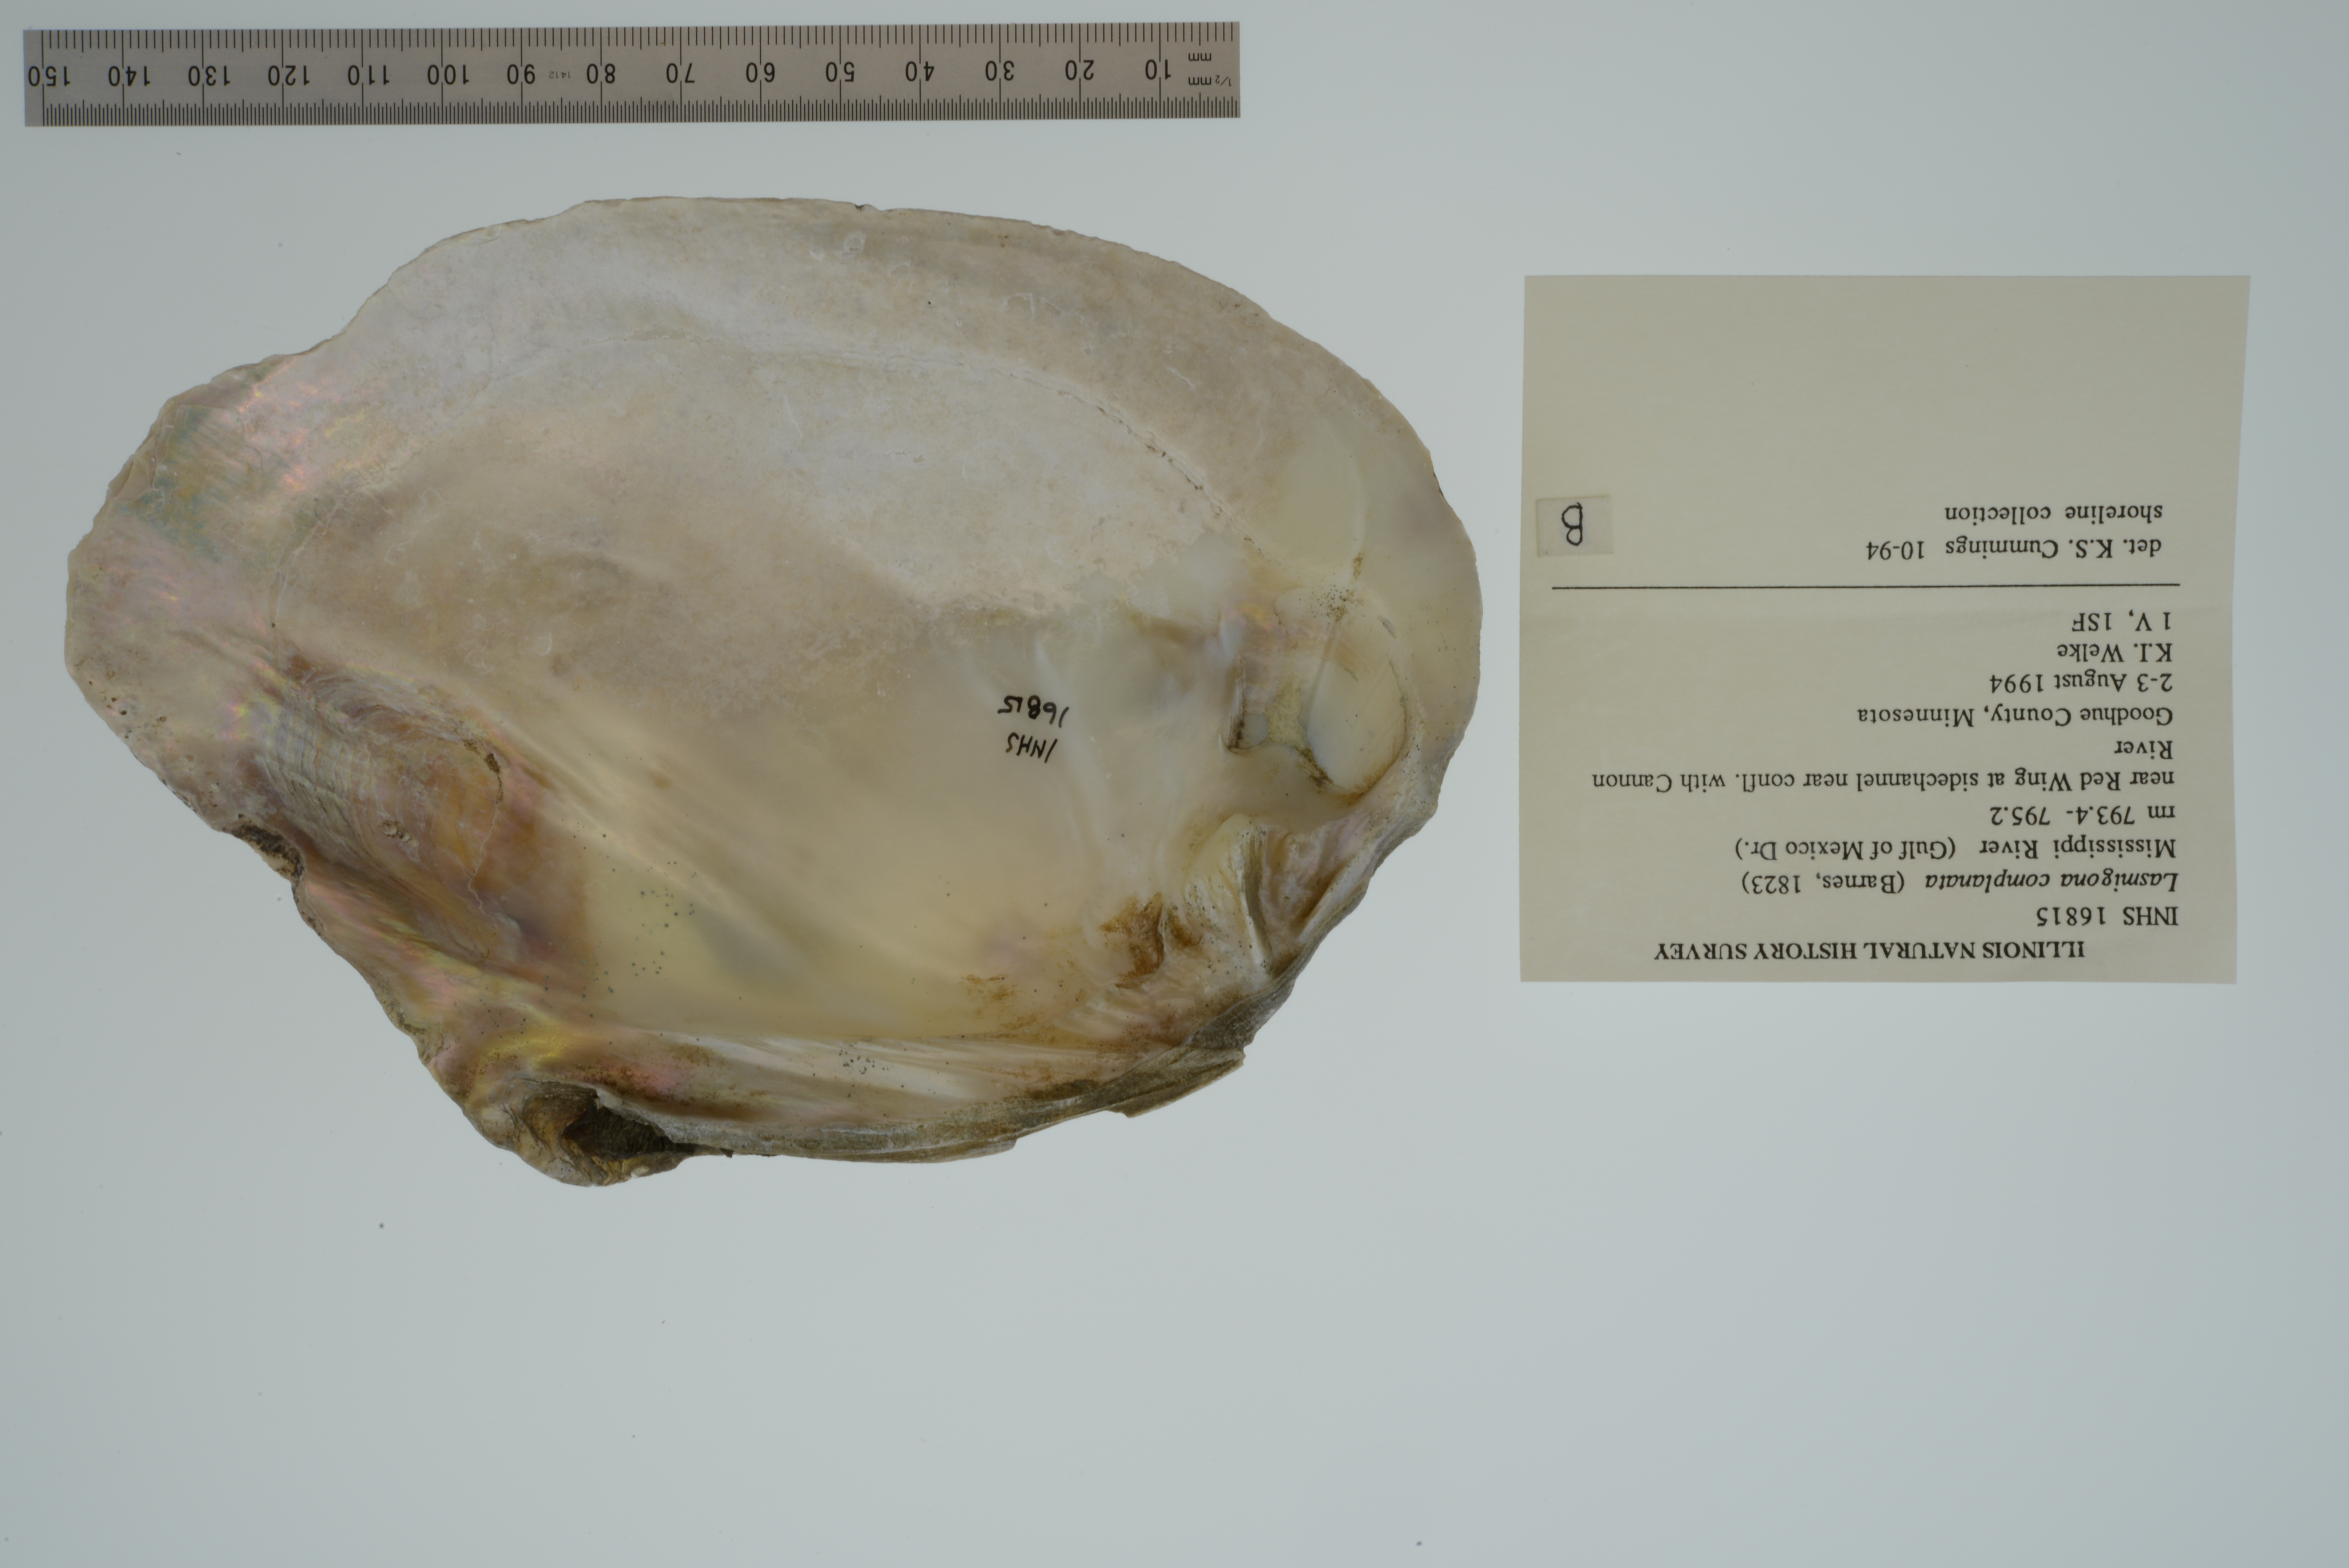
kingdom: Animalia
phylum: Mollusca
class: Bivalvia
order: Unionida
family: Unionidae
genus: Lasmigona
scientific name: Lasmigona complanata
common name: White heelsplitter
